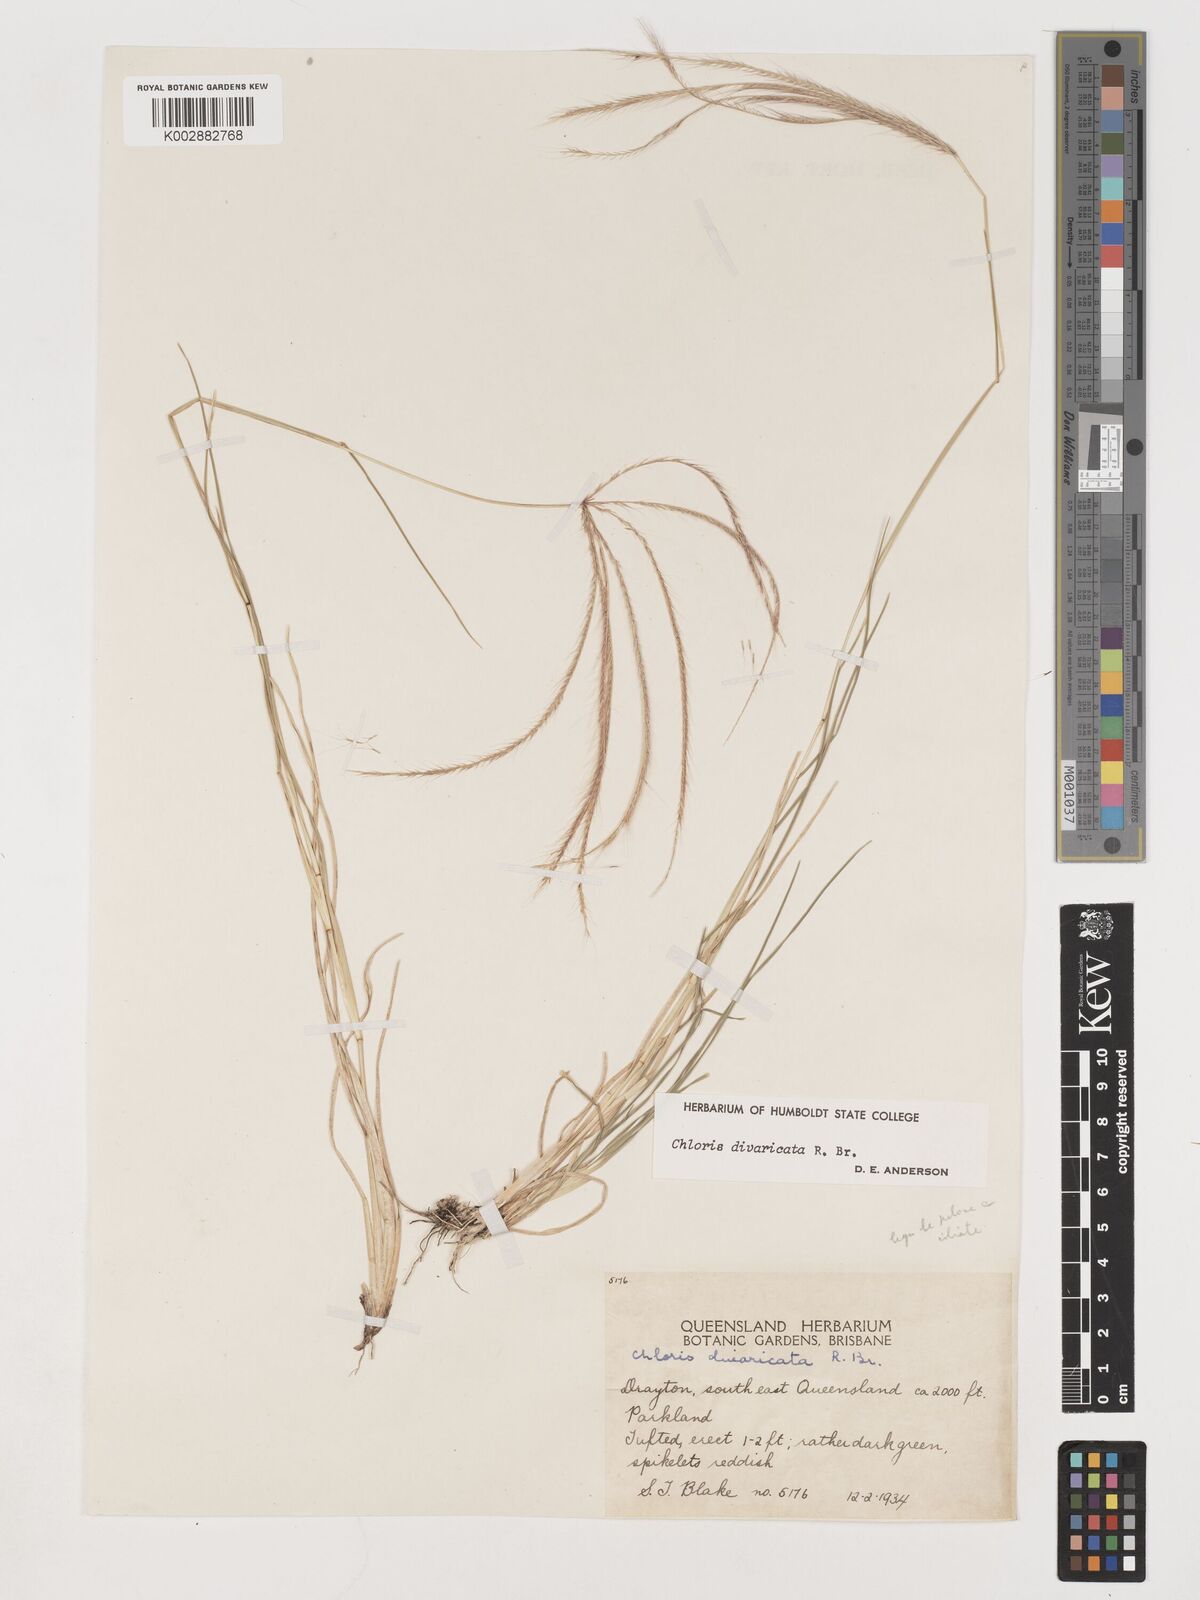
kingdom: Plantae
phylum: Tracheophyta
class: Liliopsida
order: Poales
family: Poaceae
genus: Chloris
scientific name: Chloris divaricata
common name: Spreading windmill grass
